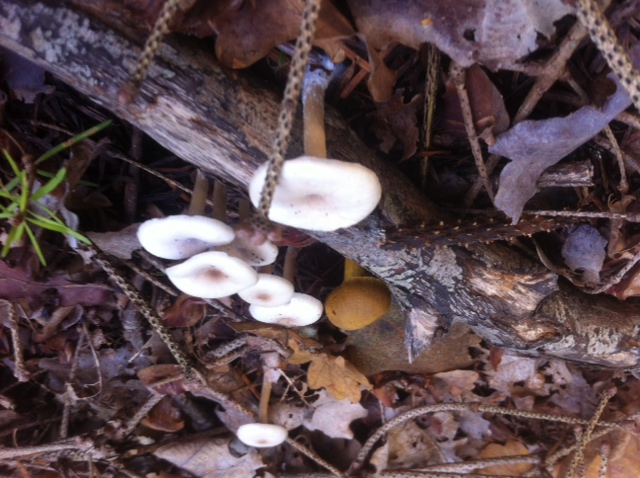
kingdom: Fungi
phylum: Basidiomycota
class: Agaricomycetes
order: Agaricales
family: Tricholomataceae
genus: Clitocybe
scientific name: Clitocybe fragrans
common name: vellugtende tragthat
